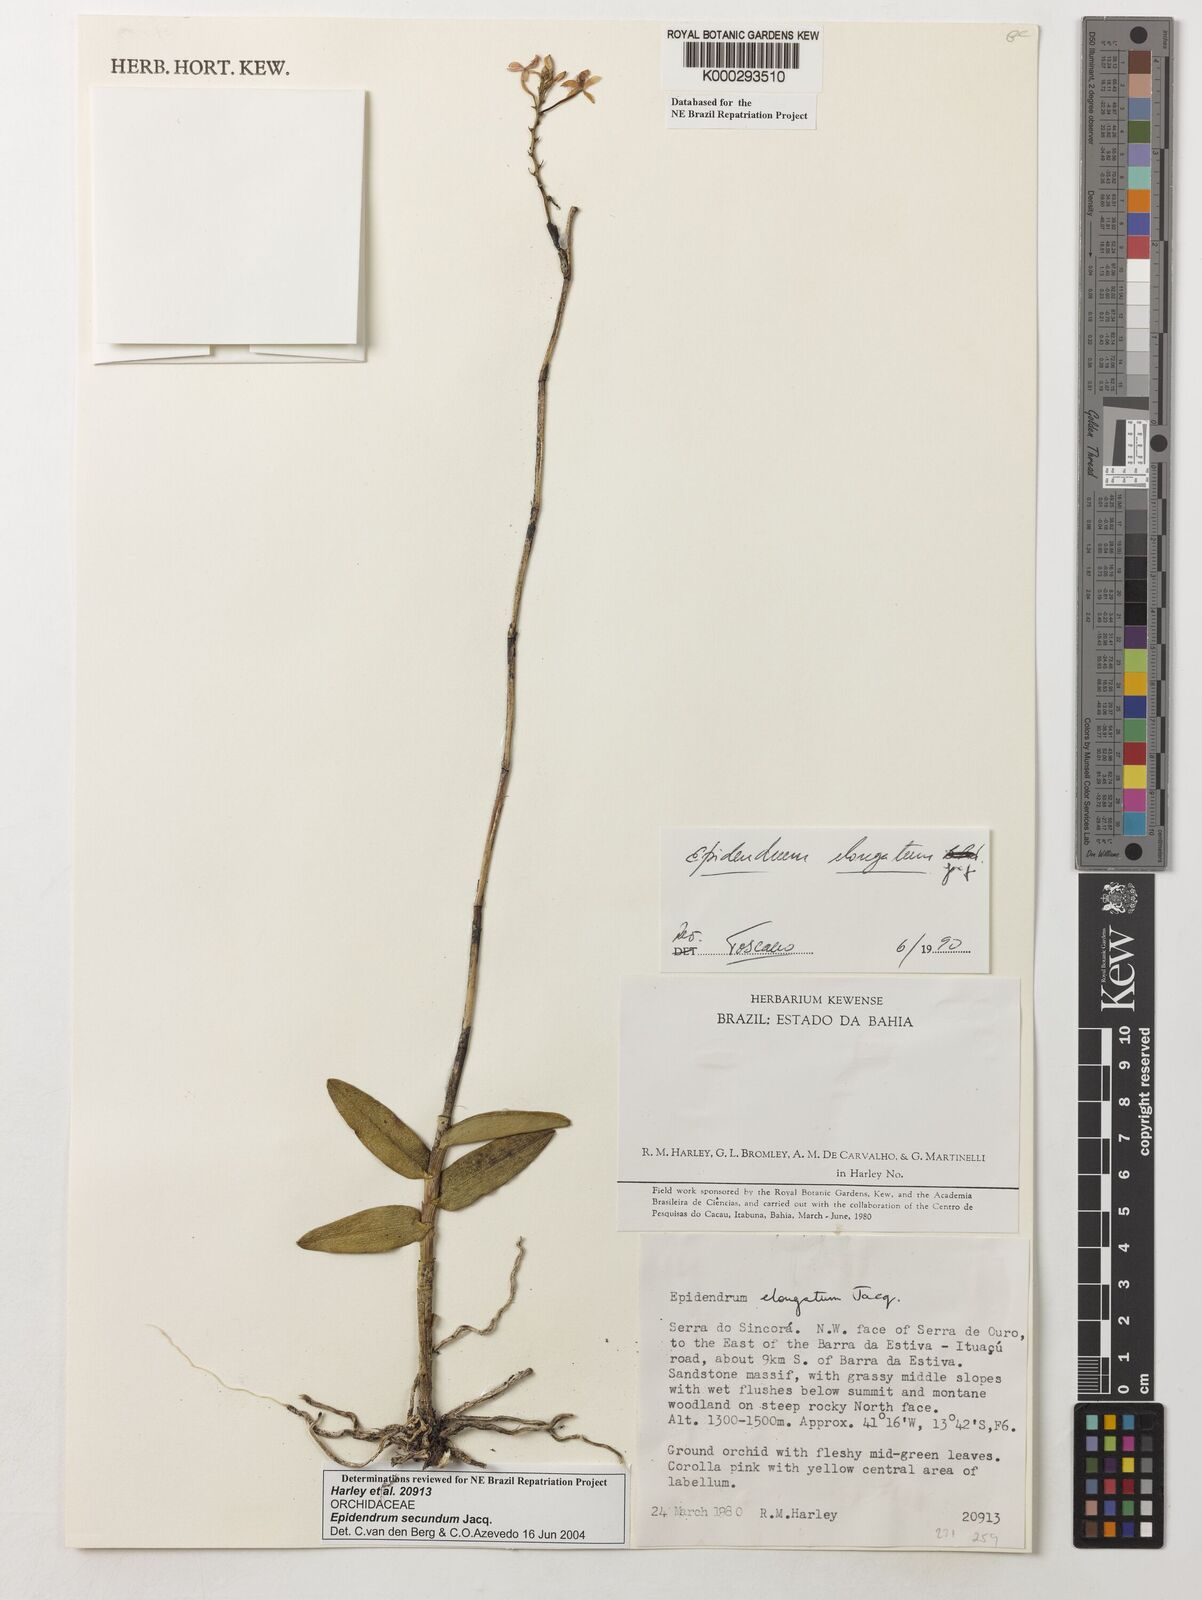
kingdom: Plantae
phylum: Tracheophyta
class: Liliopsida
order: Asparagales
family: Orchidaceae
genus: Epidendrum
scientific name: Epidendrum secundum
